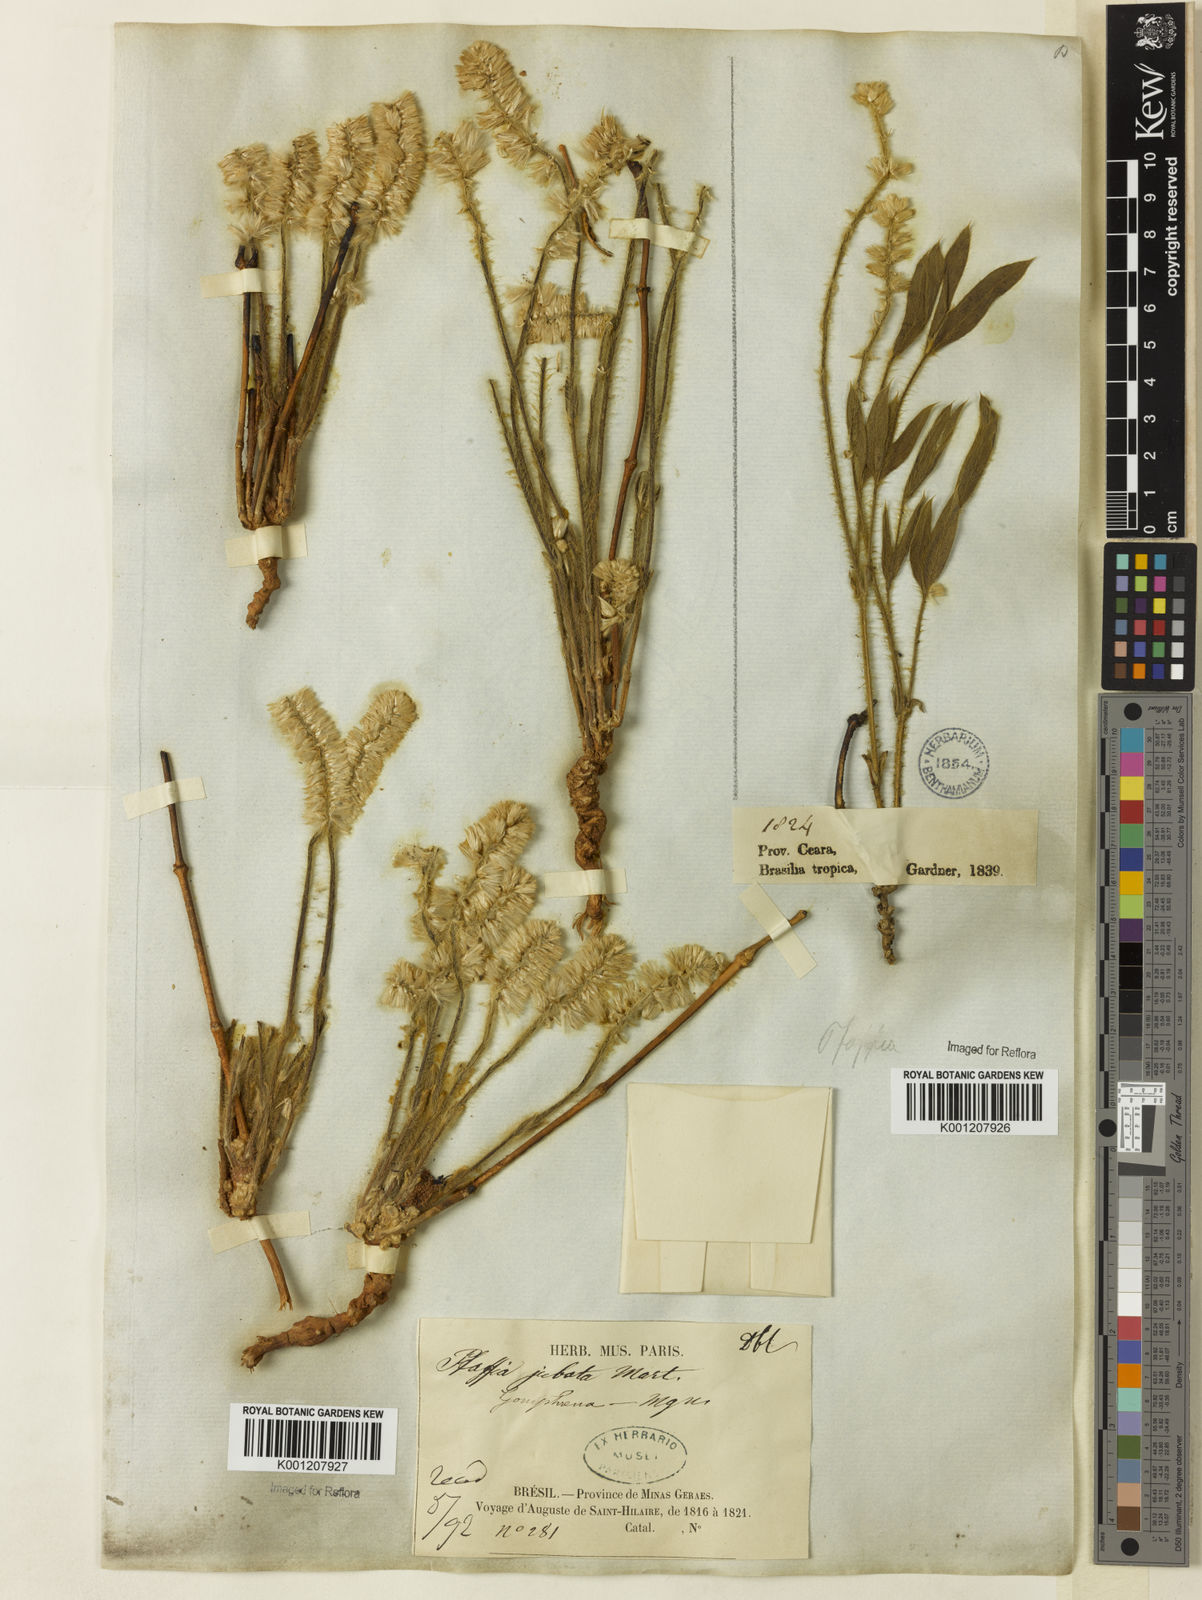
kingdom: Plantae
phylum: Tracheophyta
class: Magnoliopsida
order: Caryophyllales
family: Amaranthaceae
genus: Pfaffia
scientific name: Pfaffia jubata
